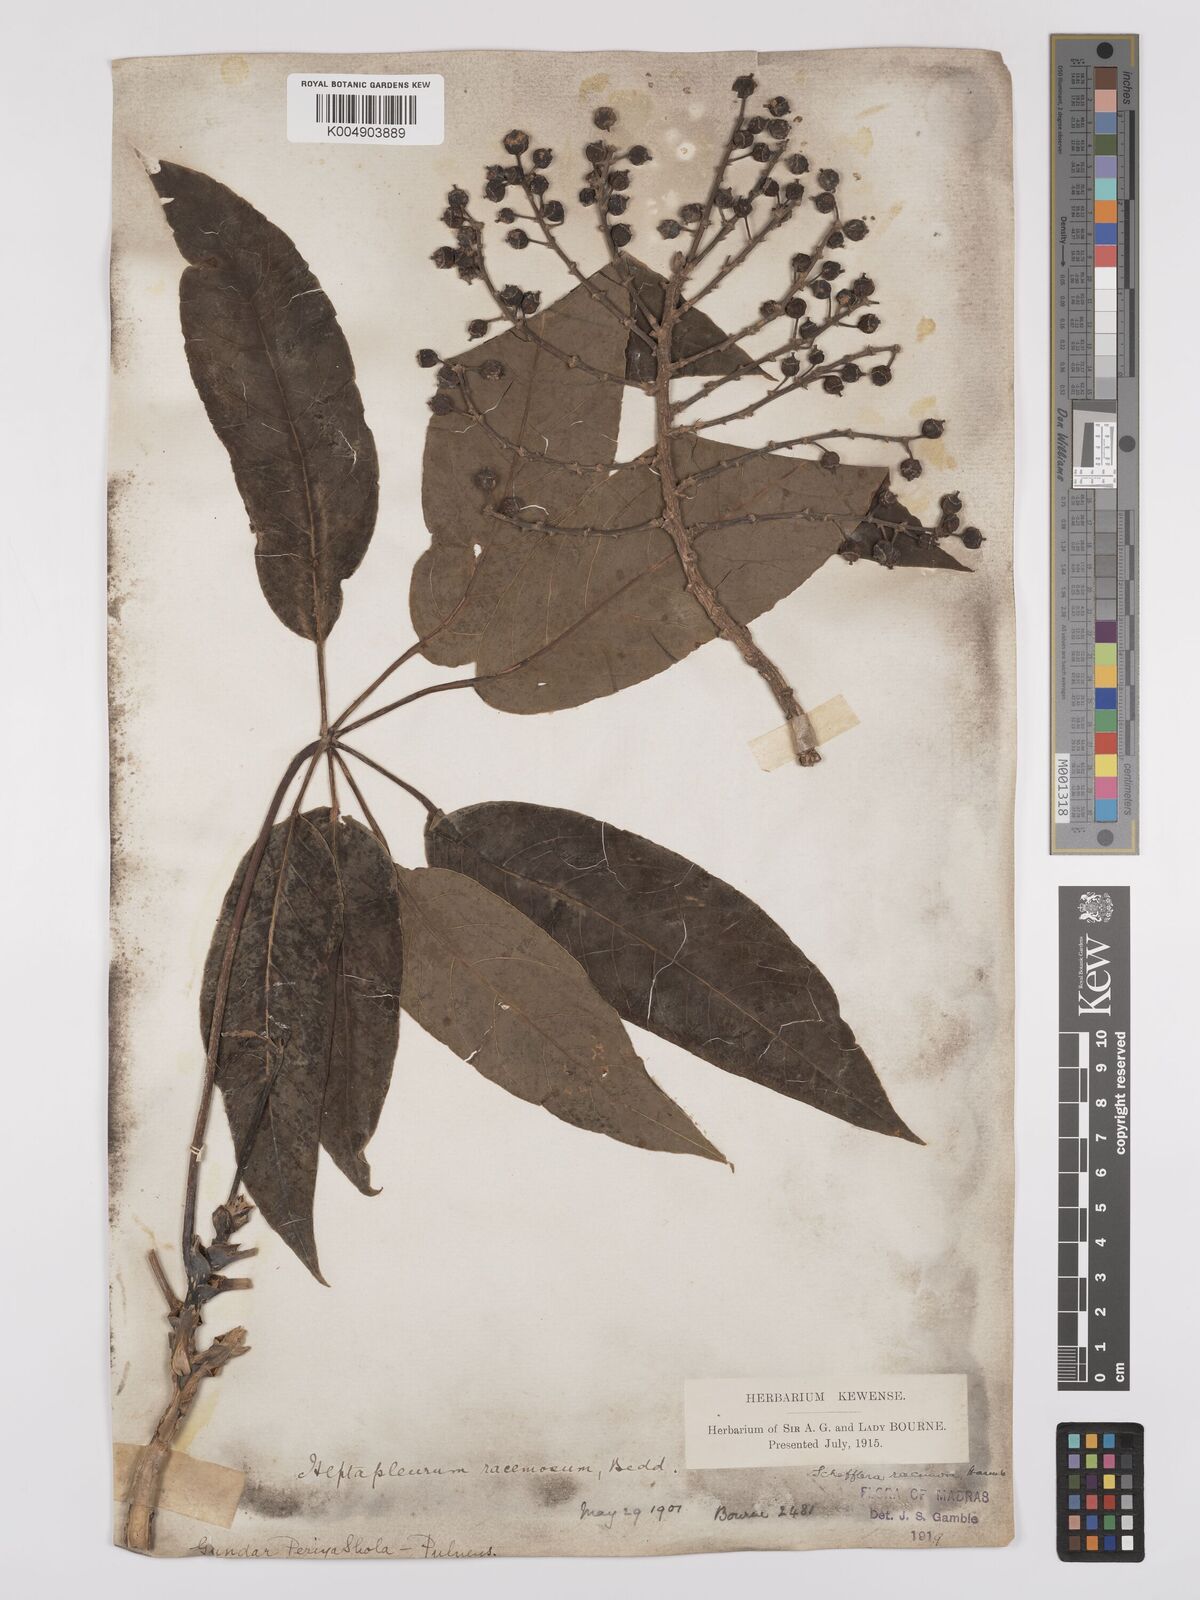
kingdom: Plantae
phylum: Tracheophyta
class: Magnoliopsida
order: Apiales
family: Araliaceae
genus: Heptapleurum
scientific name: Heptapleurum
